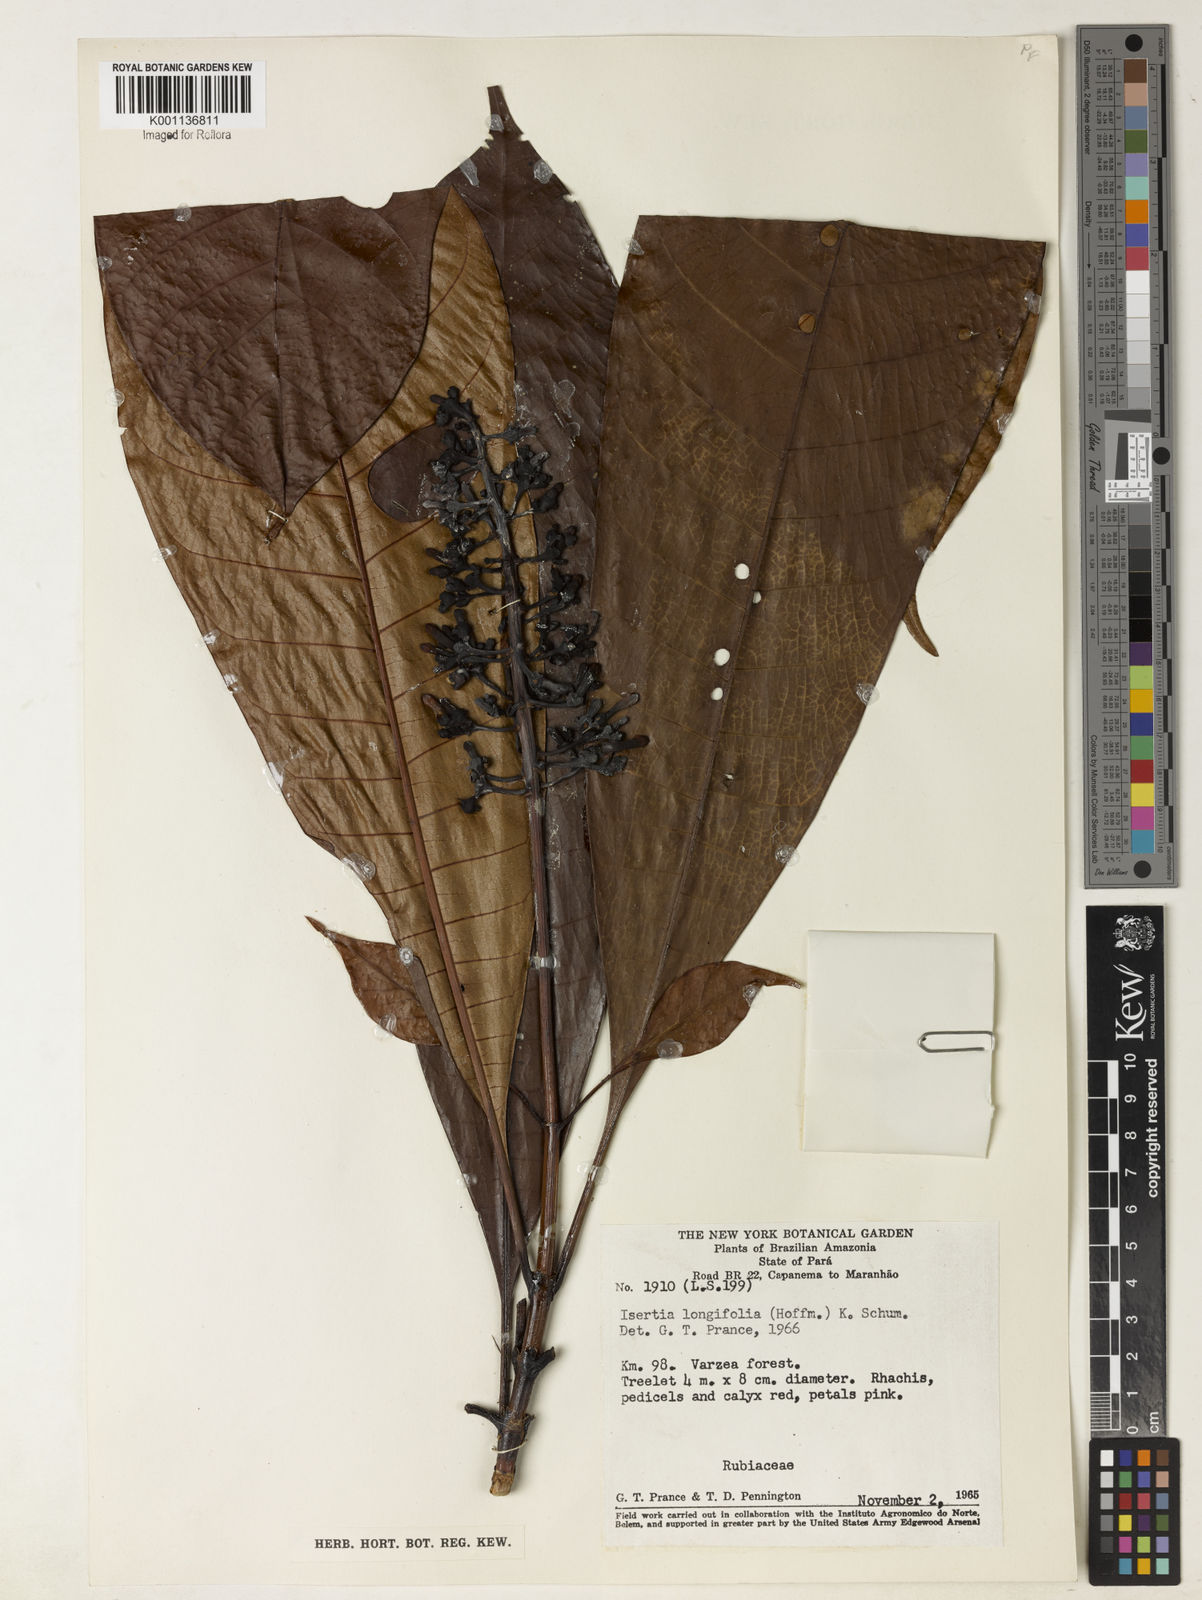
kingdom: Plantae
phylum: Tracheophyta
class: Magnoliopsida
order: Gentianales
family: Rubiaceae
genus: Isertia
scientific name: Isertia longifolia
